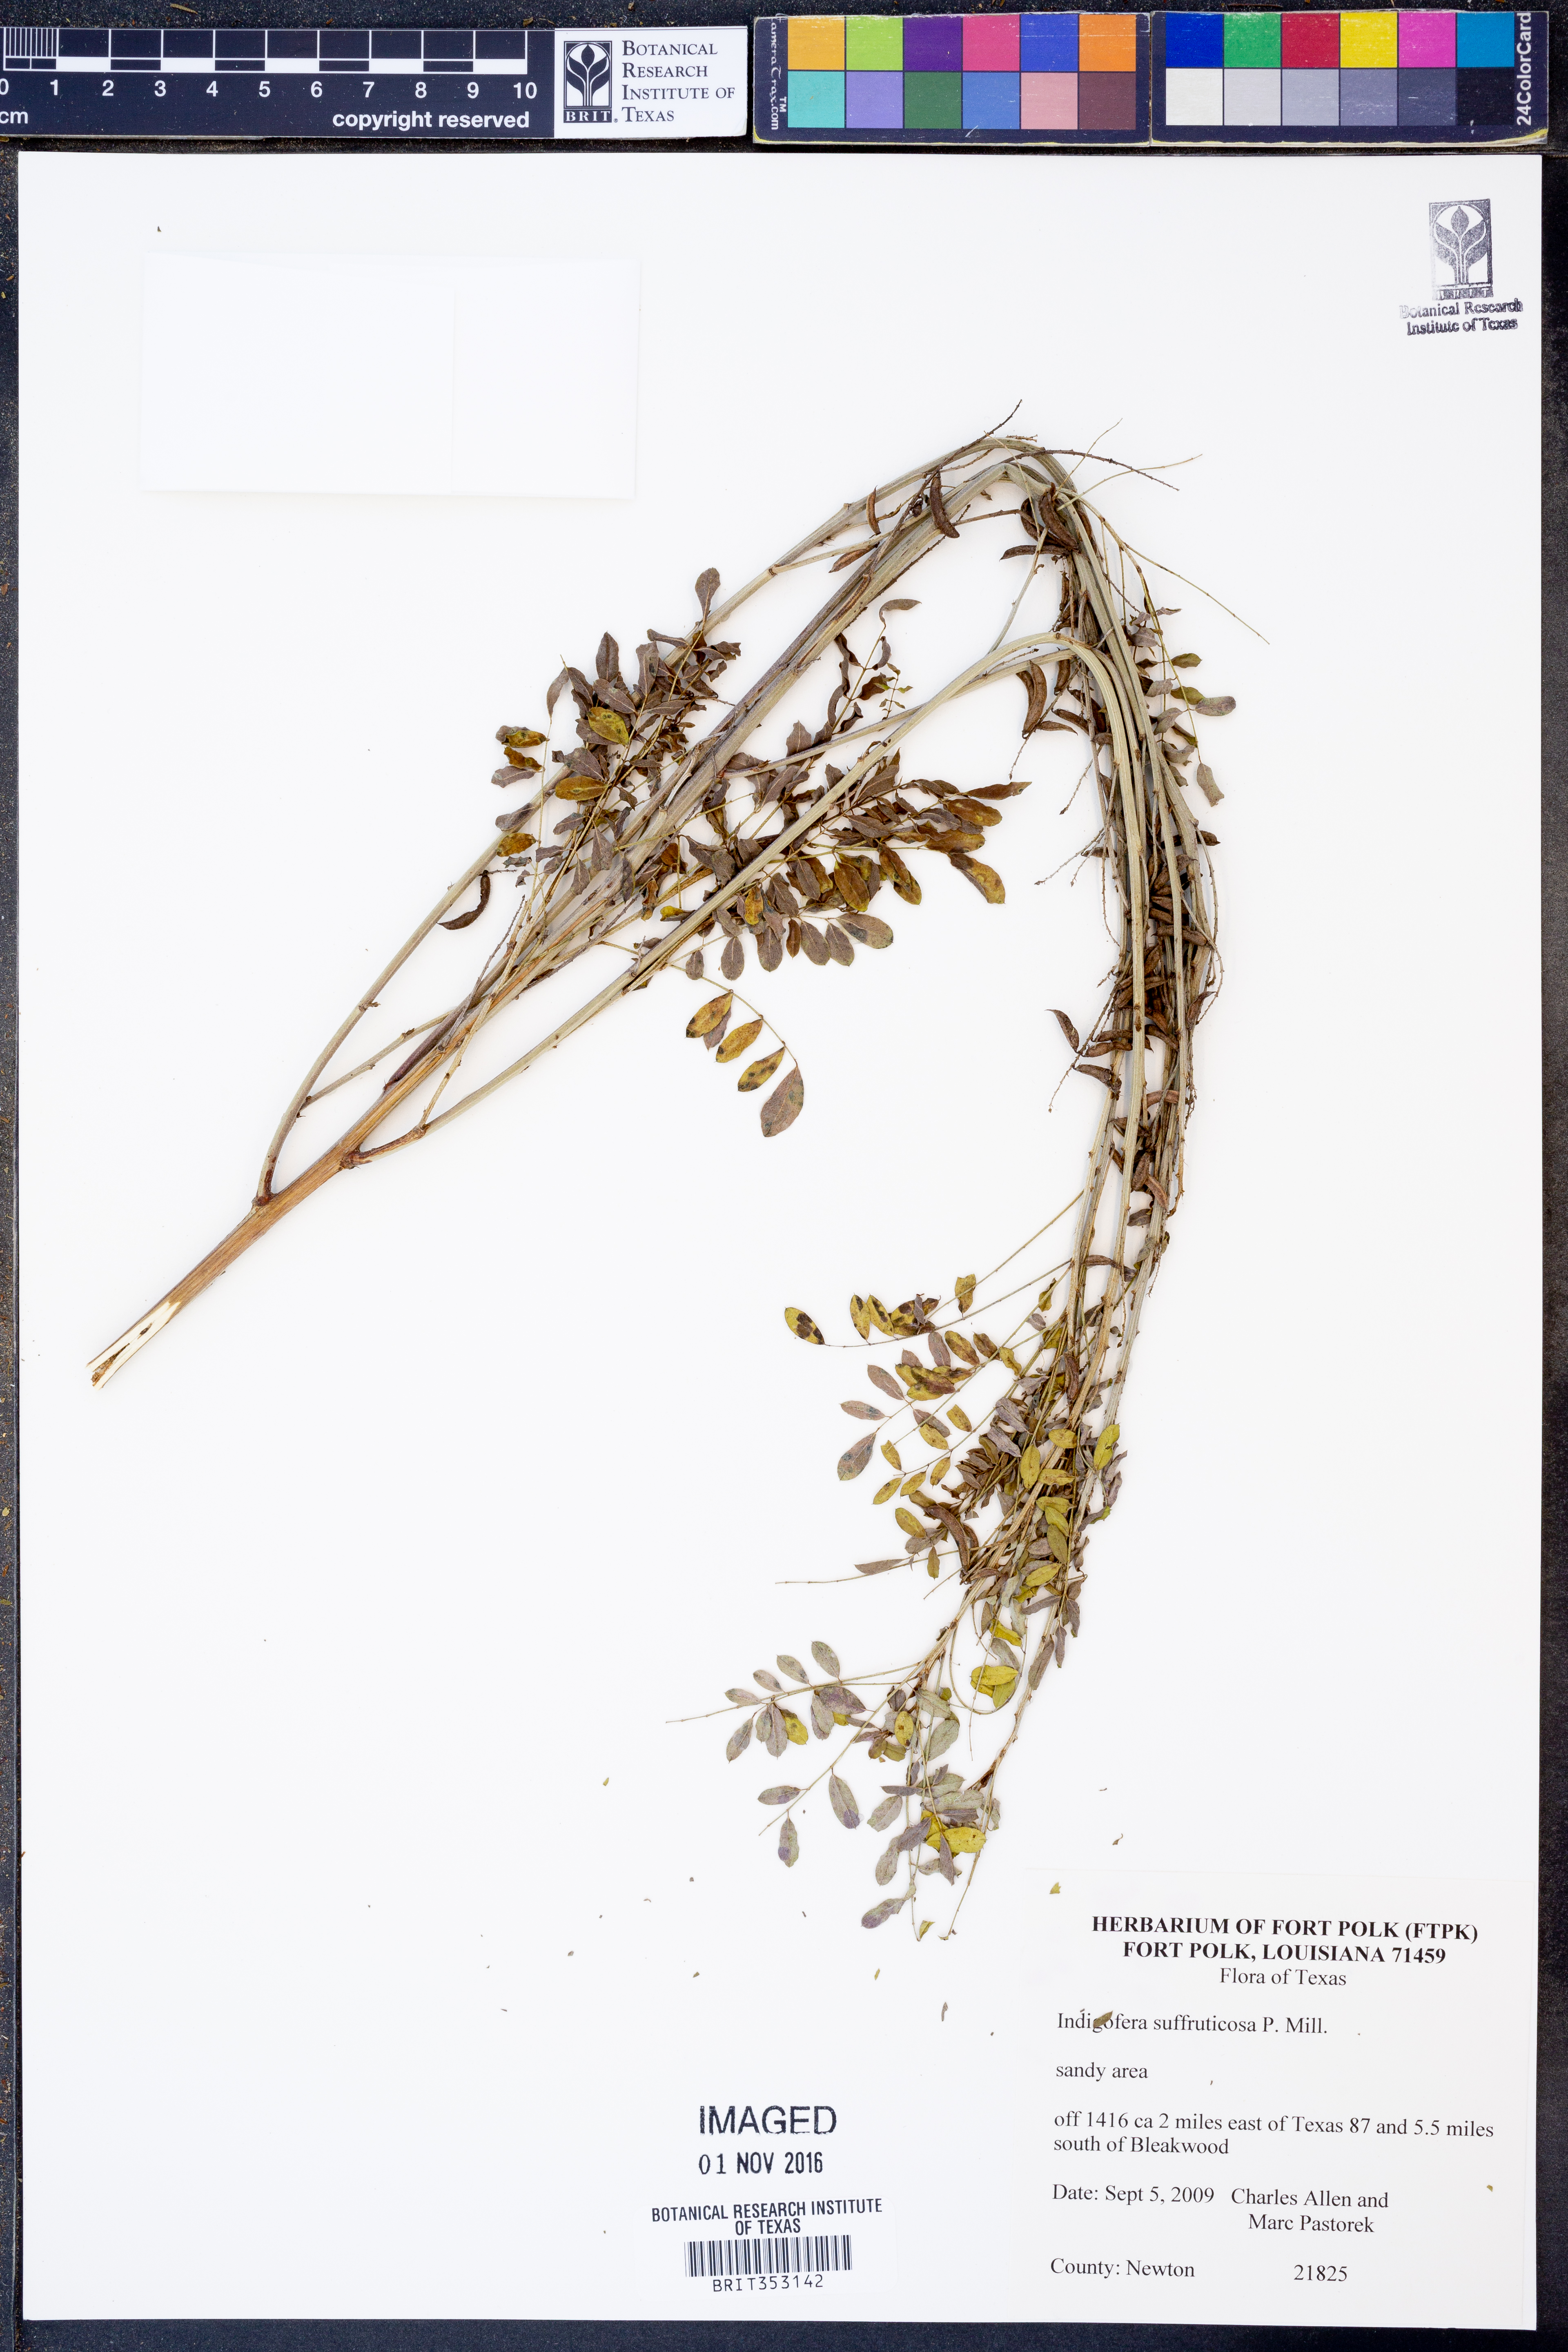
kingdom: Plantae
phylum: Tracheophyta
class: Magnoliopsida
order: Fabales
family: Fabaceae
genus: Indigofera
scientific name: Indigofera suffruticosa
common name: Anil de pasto
